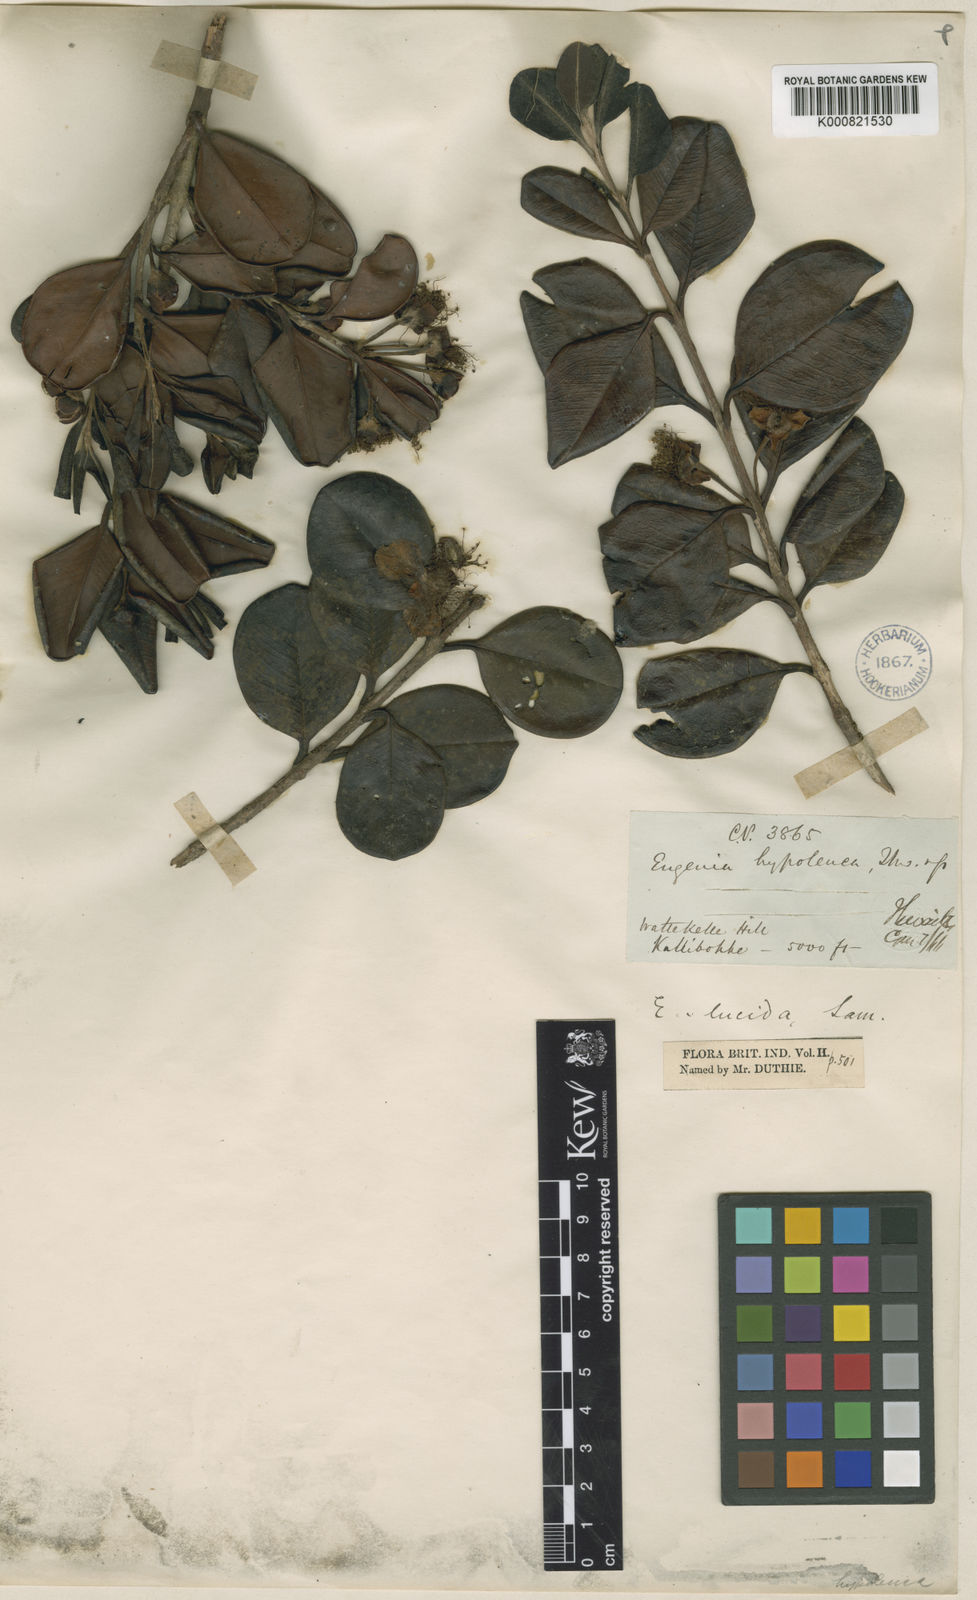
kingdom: Plantae
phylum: Tracheophyta
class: Magnoliopsida
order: Myrtales
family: Myrtaceae
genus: Eugenia
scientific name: Eugenia codyensis
